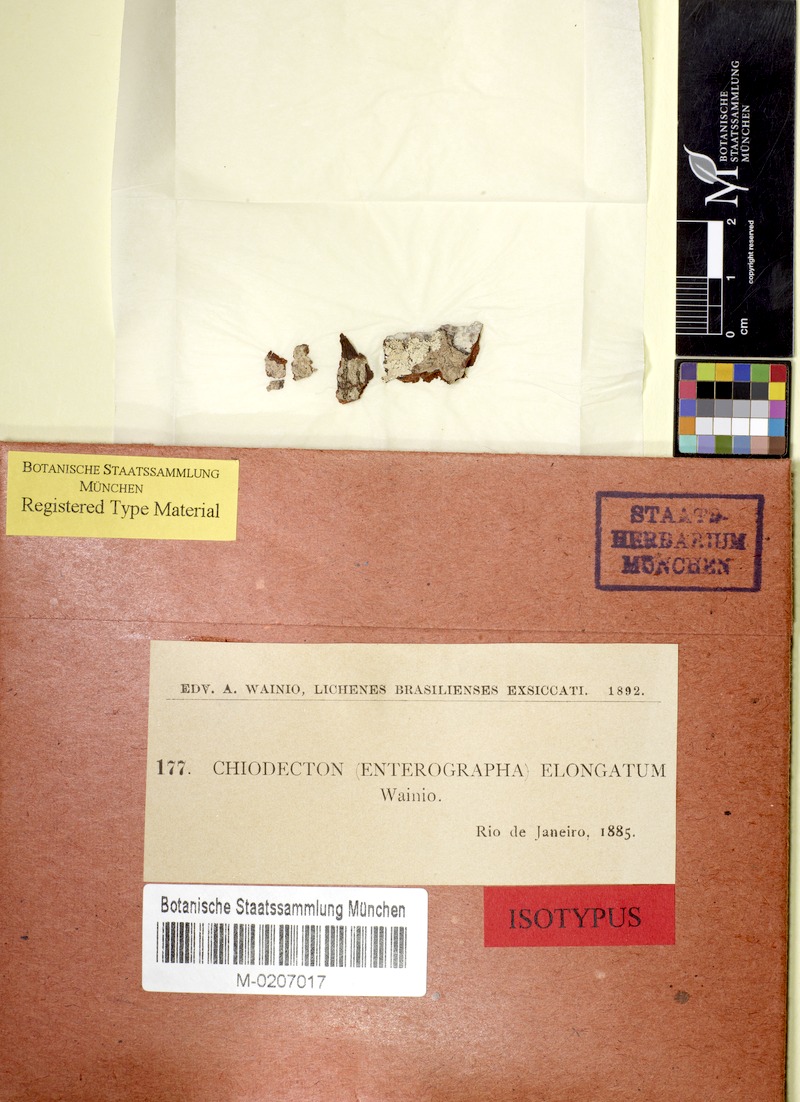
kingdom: Fungi
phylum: Ascomycota
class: Arthoniomycetes
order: Arthoniales
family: Roccellaceae
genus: Enterographa
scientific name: Enterographa quassiicola
